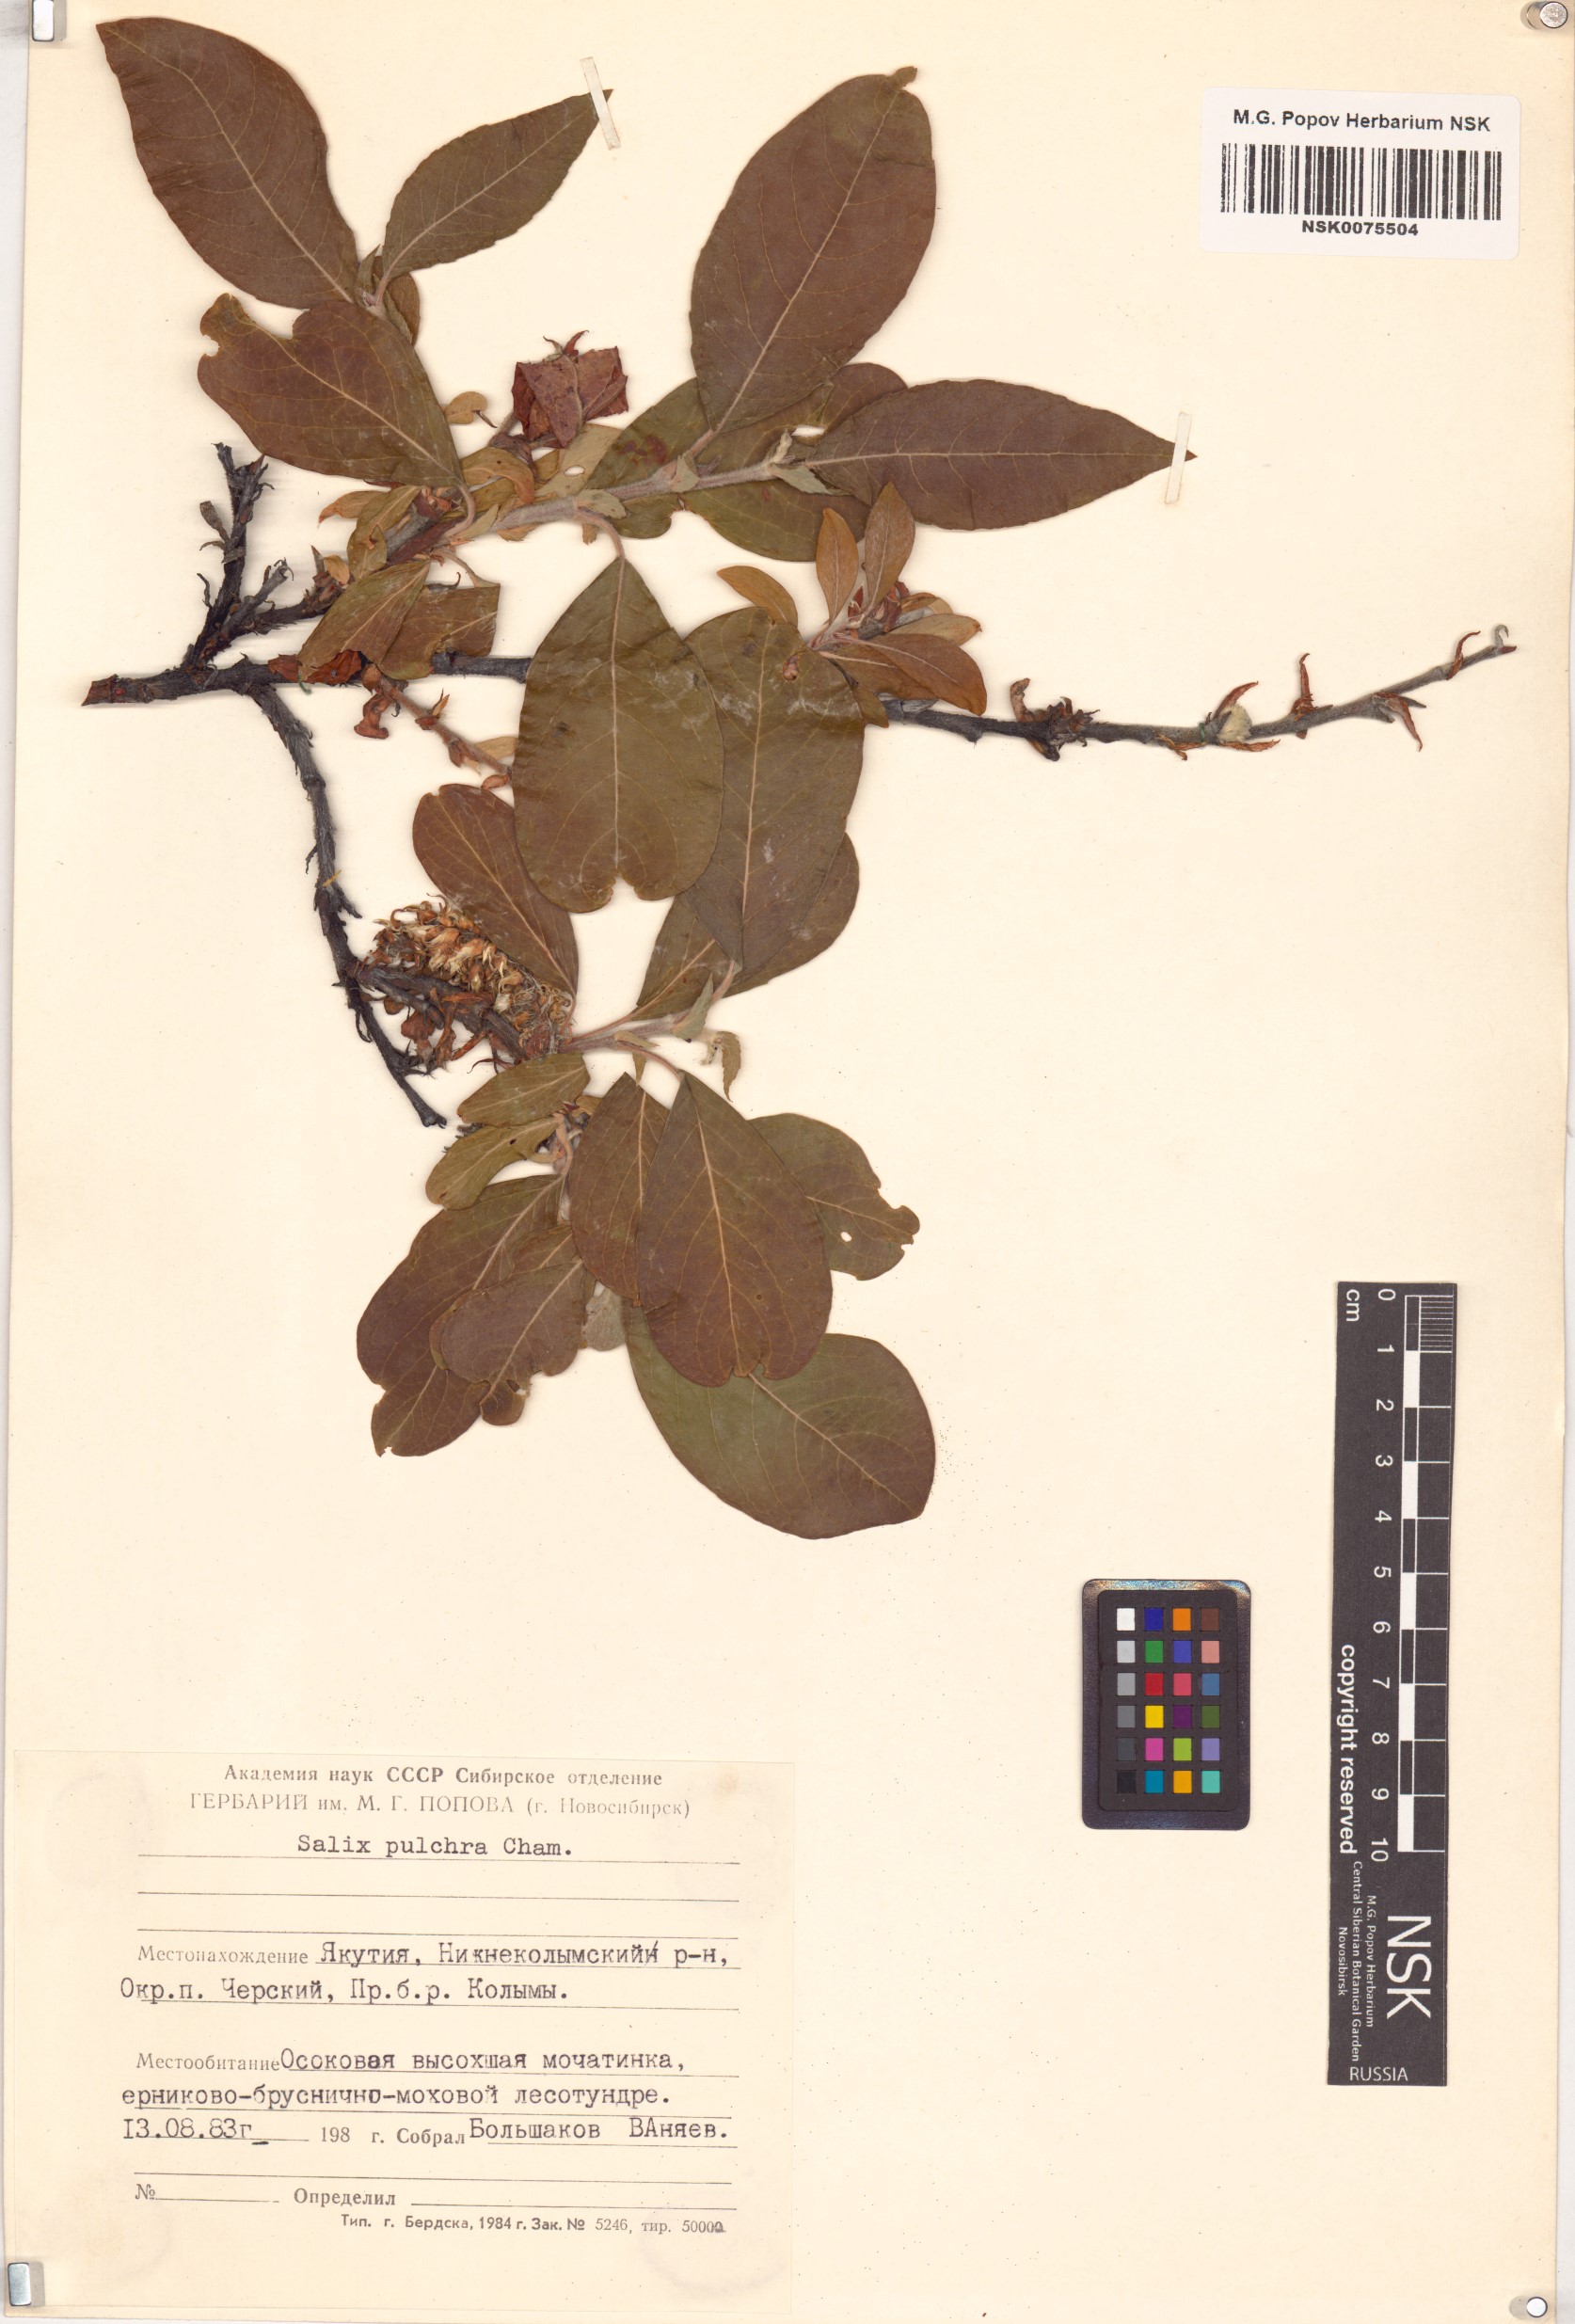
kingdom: Plantae
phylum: Tracheophyta
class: Magnoliopsida
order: Malpighiales
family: Salicaceae
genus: Salix
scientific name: Salix pulchra
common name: Diamond-leaved willow
